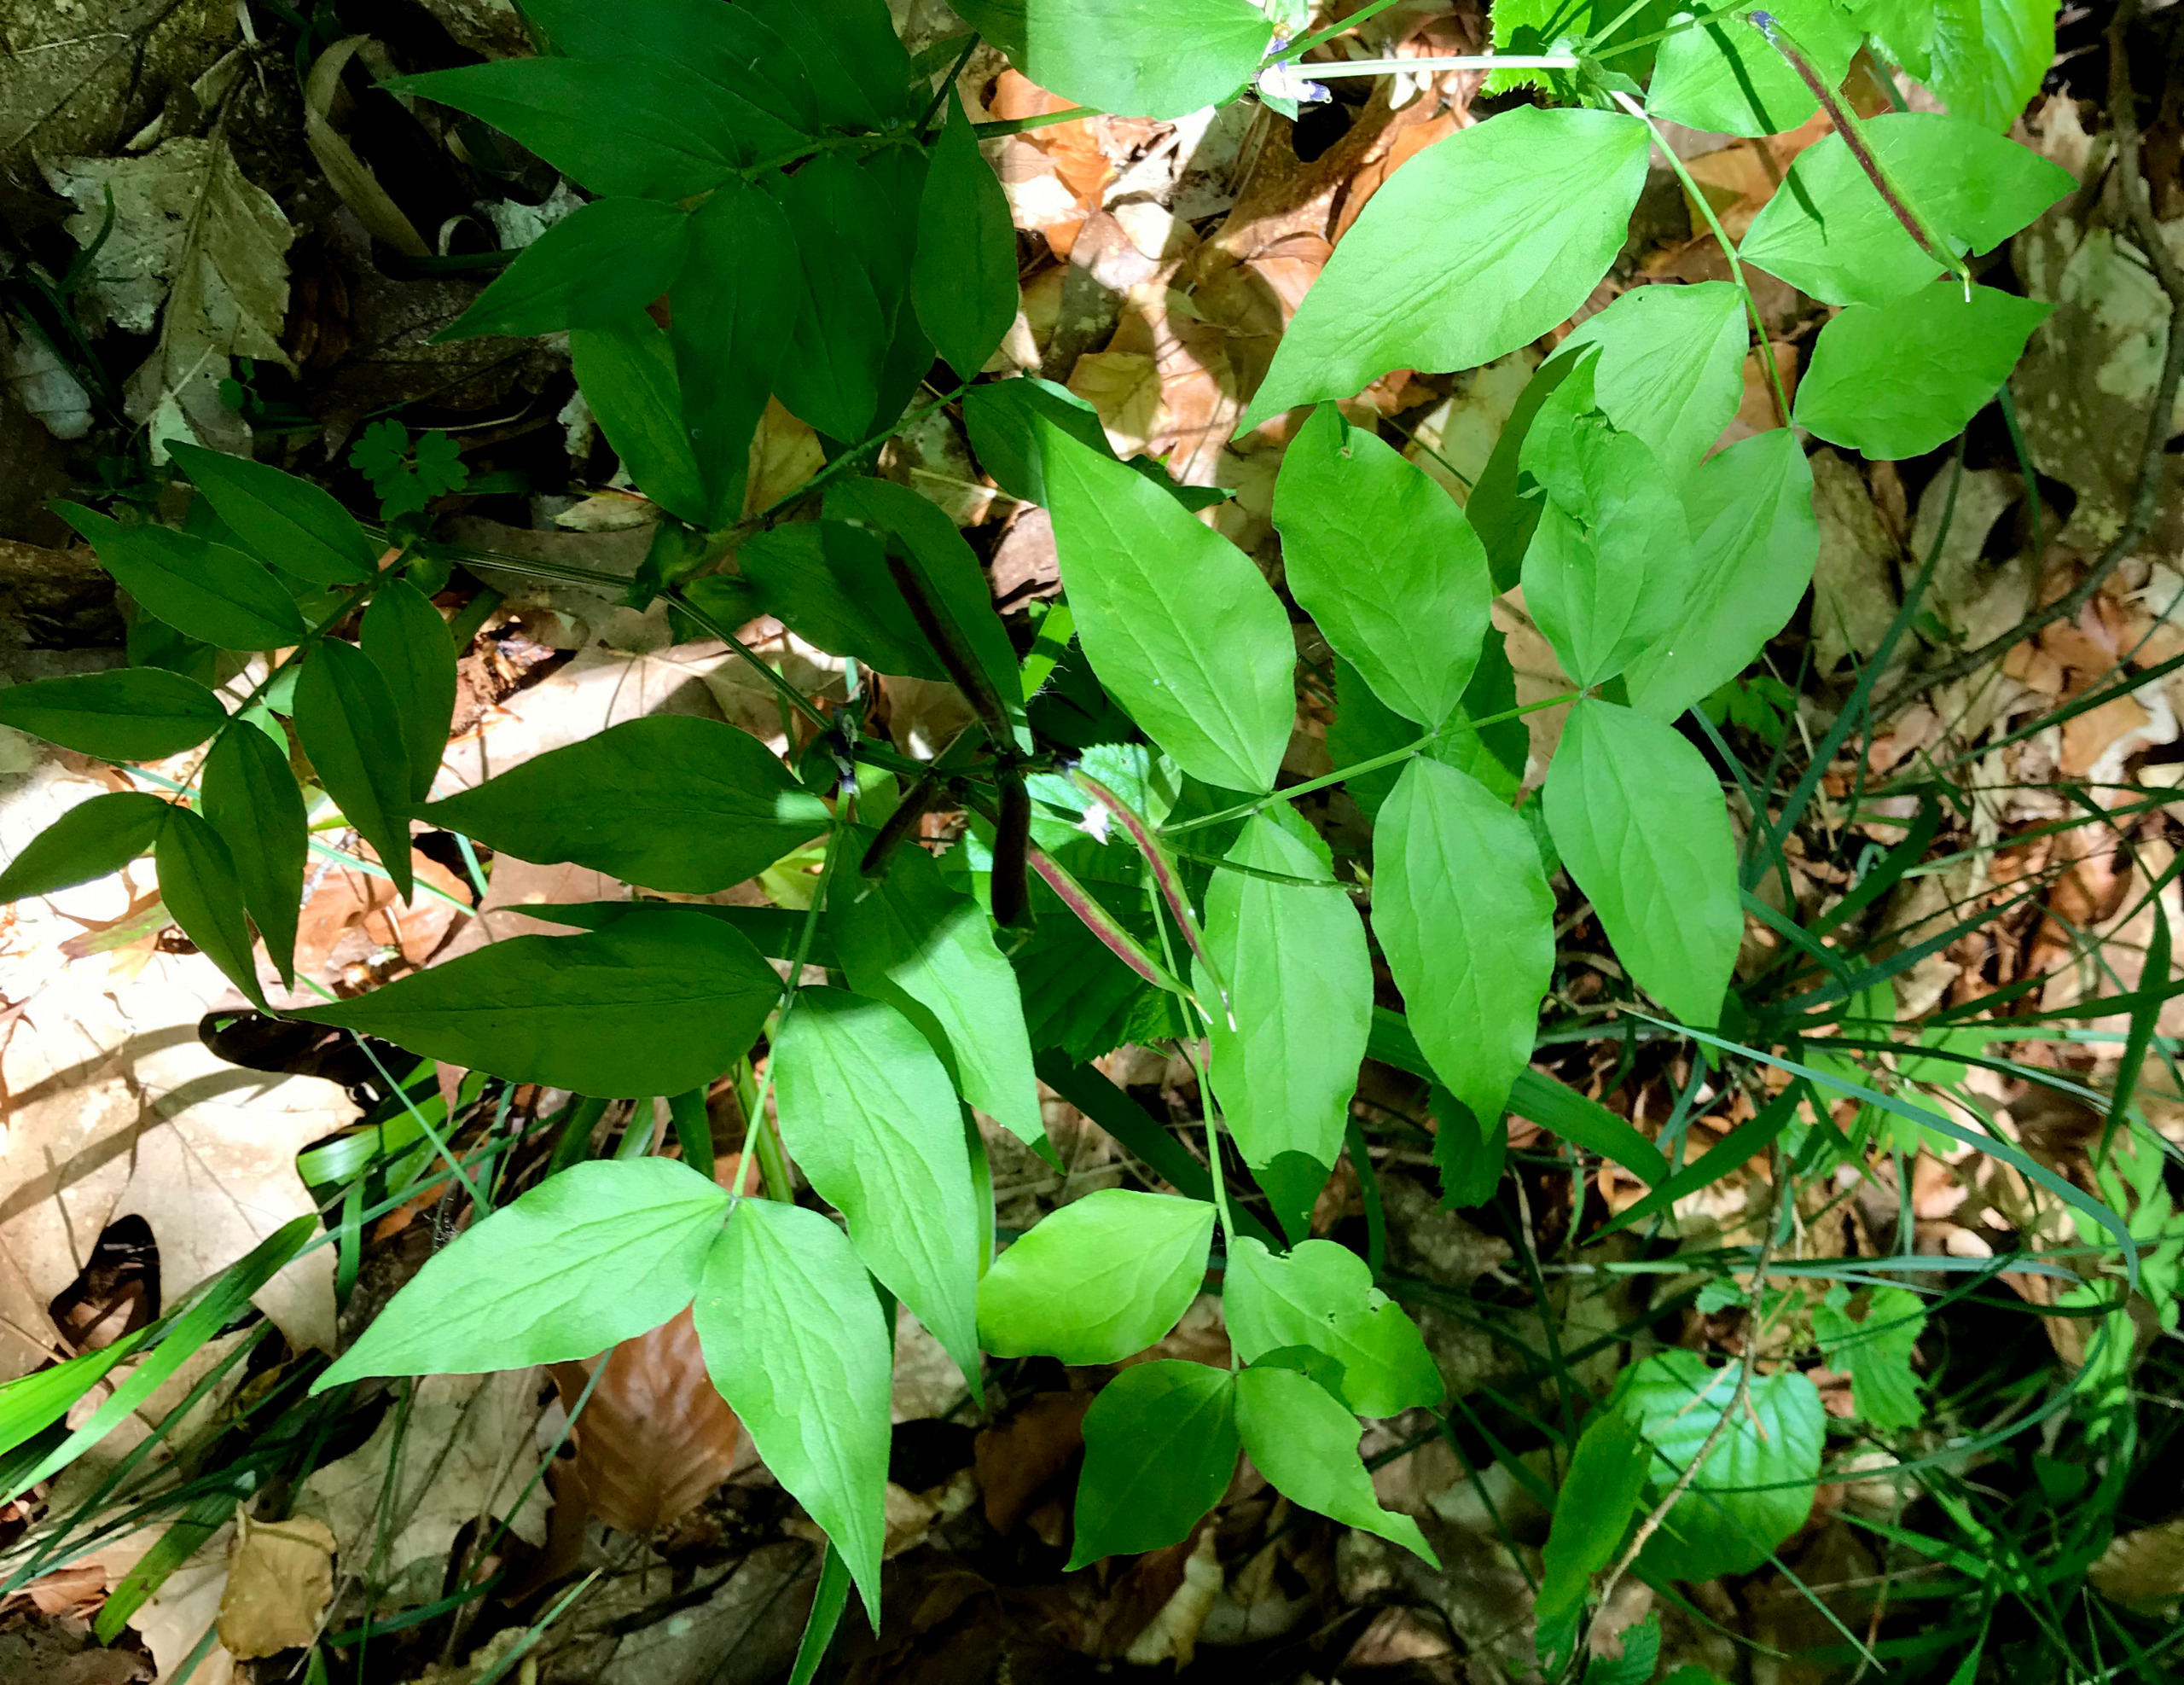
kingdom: Plantae
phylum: Tracheophyta
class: Magnoliopsida
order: Fabales
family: Fabaceae
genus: Lathyrus
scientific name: Lathyrus vernus
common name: Vår-fladbælg
